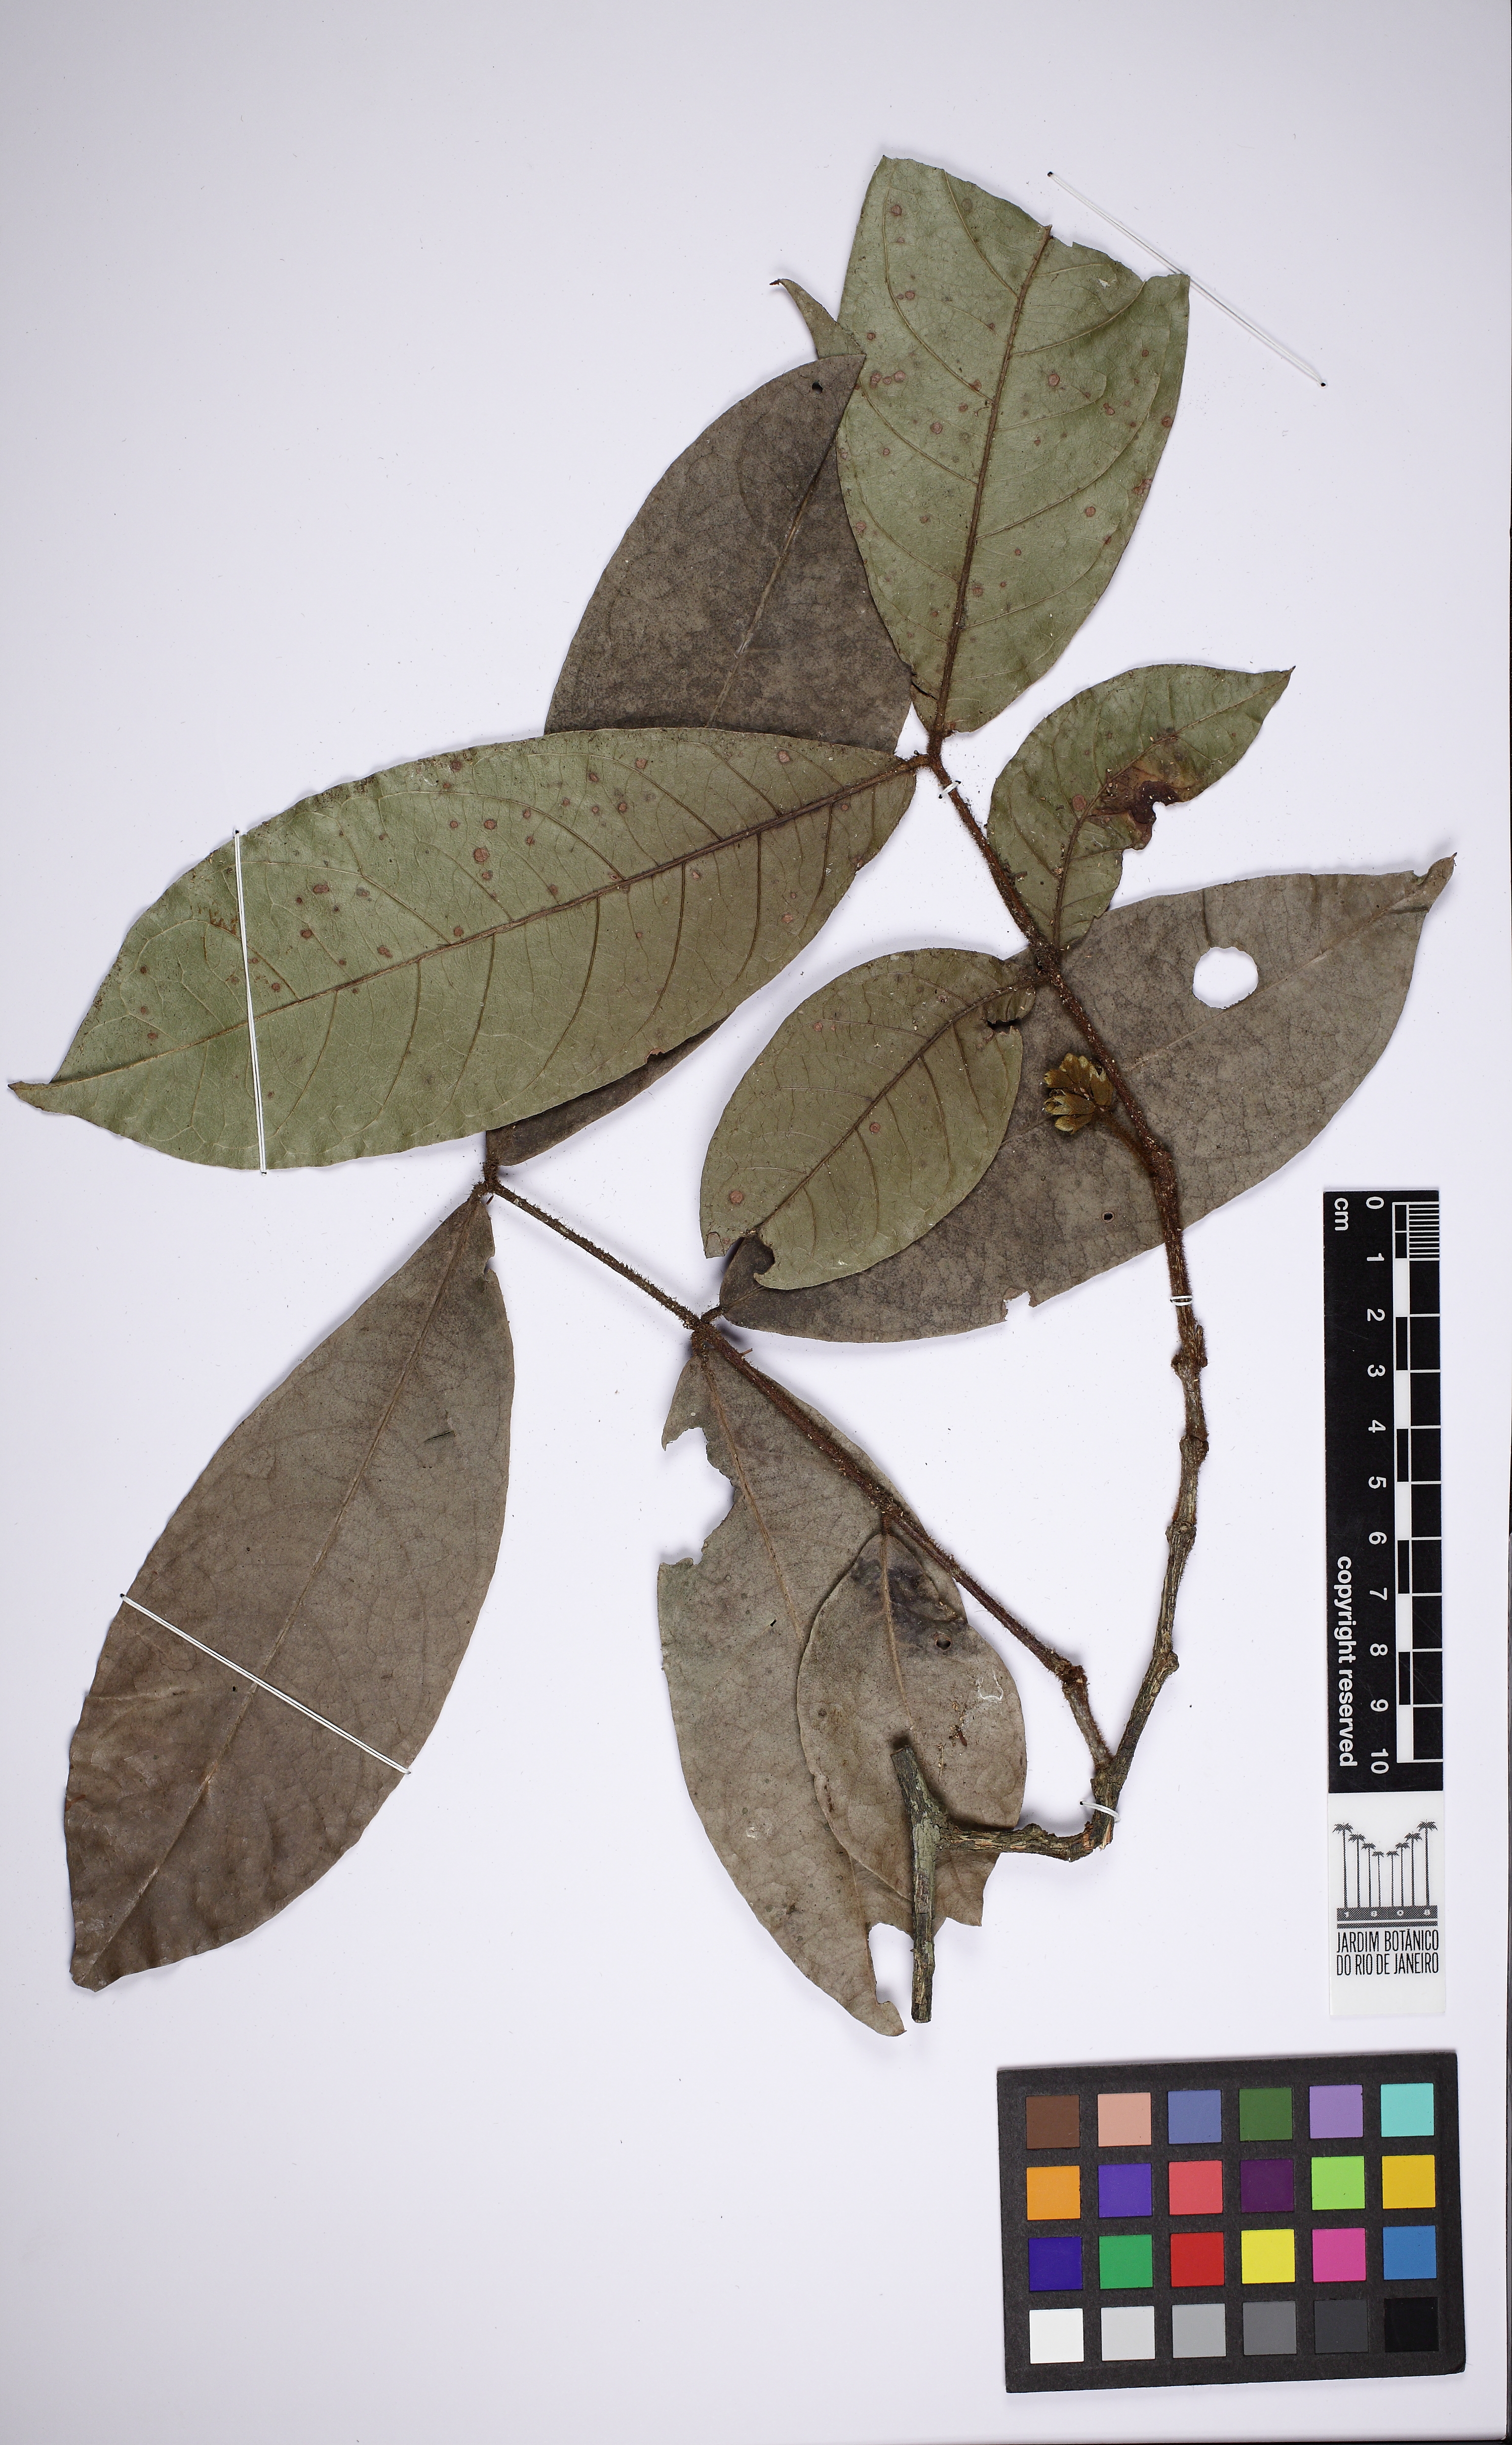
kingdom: Plantae
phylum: Tracheophyta
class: Magnoliopsida
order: Fabales
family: Fabaceae
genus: Inga
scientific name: Inga
